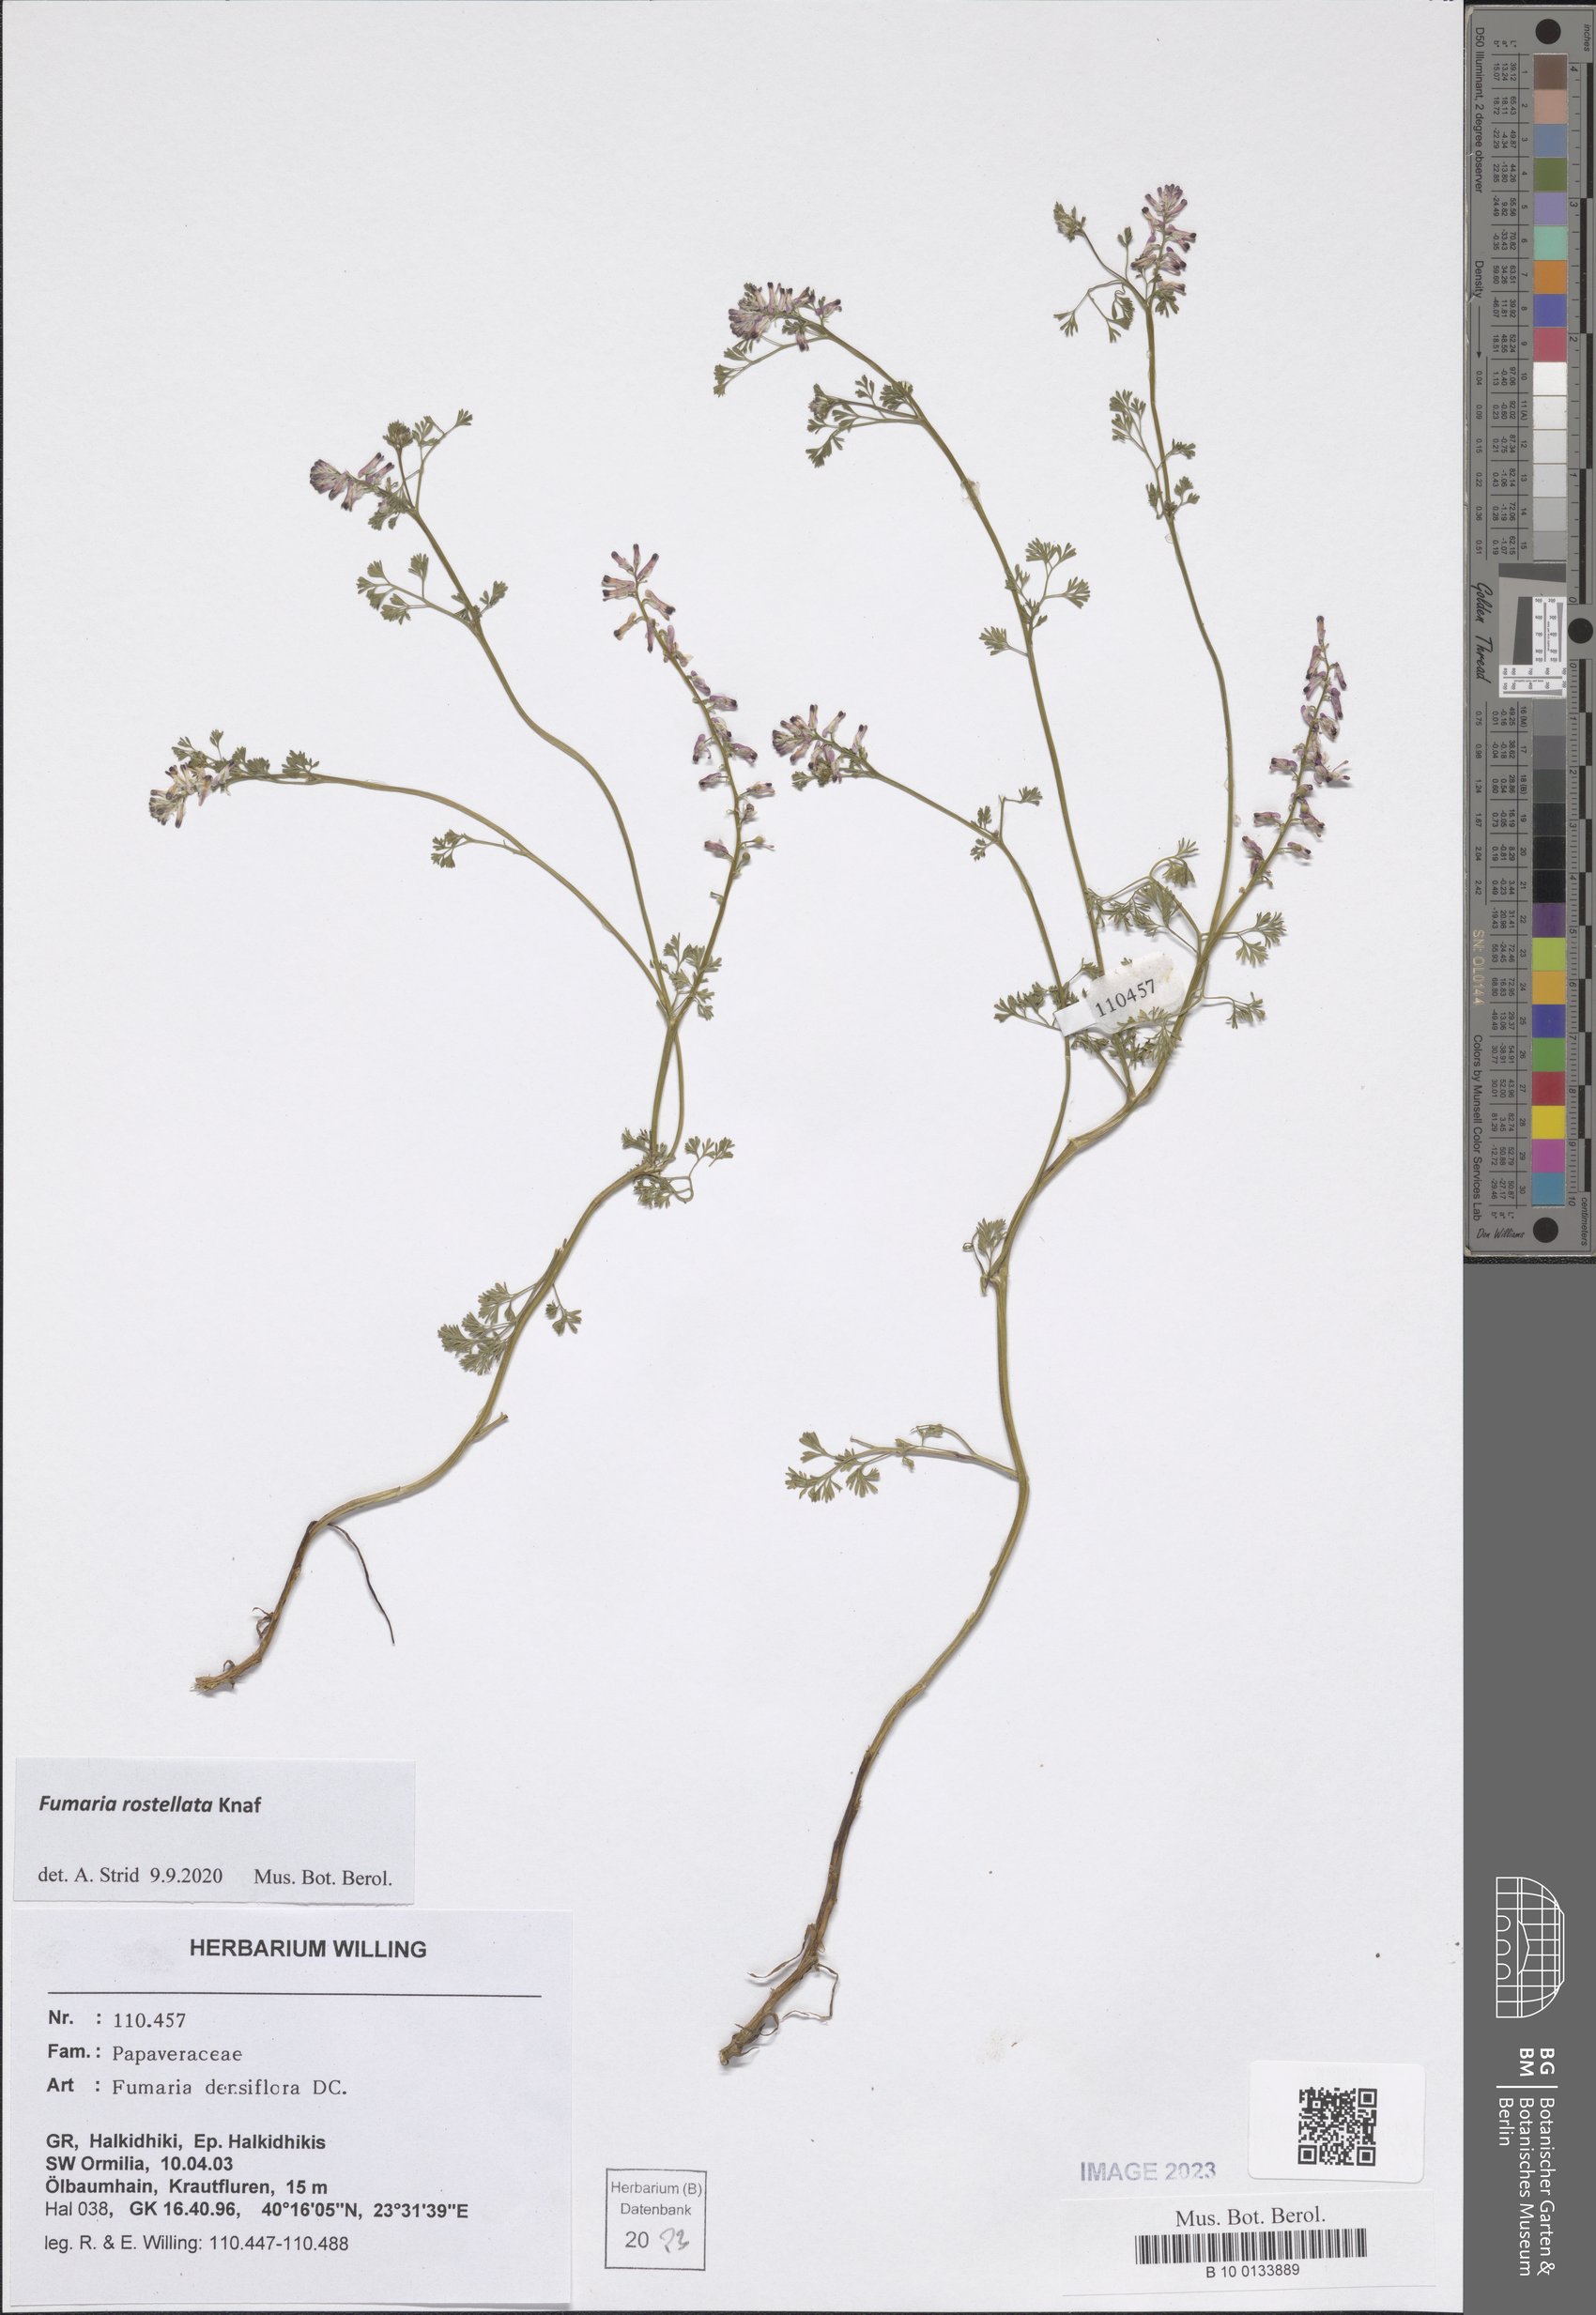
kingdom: Plantae
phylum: Tracheophyta
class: Magnoliopsida
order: Ranunculales
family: Papaveraceae
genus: Fumaria
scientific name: Fumaria rostellata
